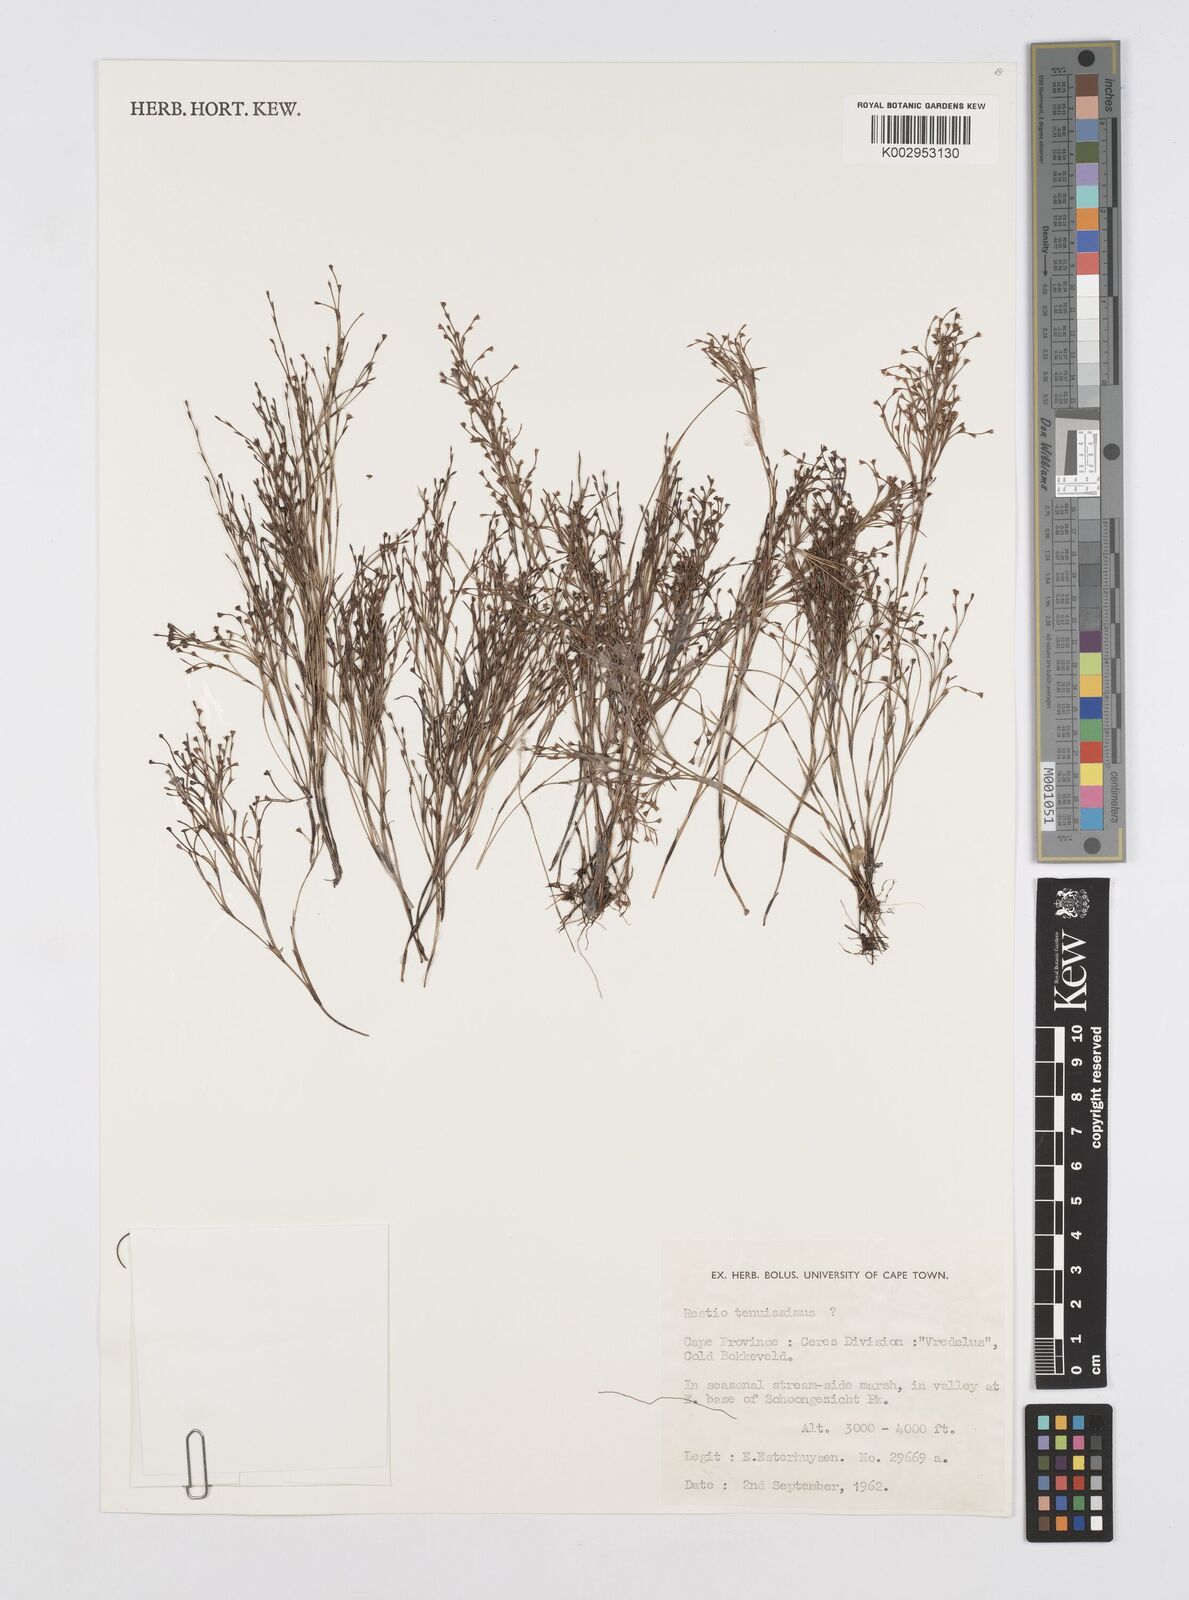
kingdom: Plantae
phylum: Tracheophyta
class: Liliopsida
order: Poales
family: Restionaceae
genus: Restio
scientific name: Restio tenuissimus
